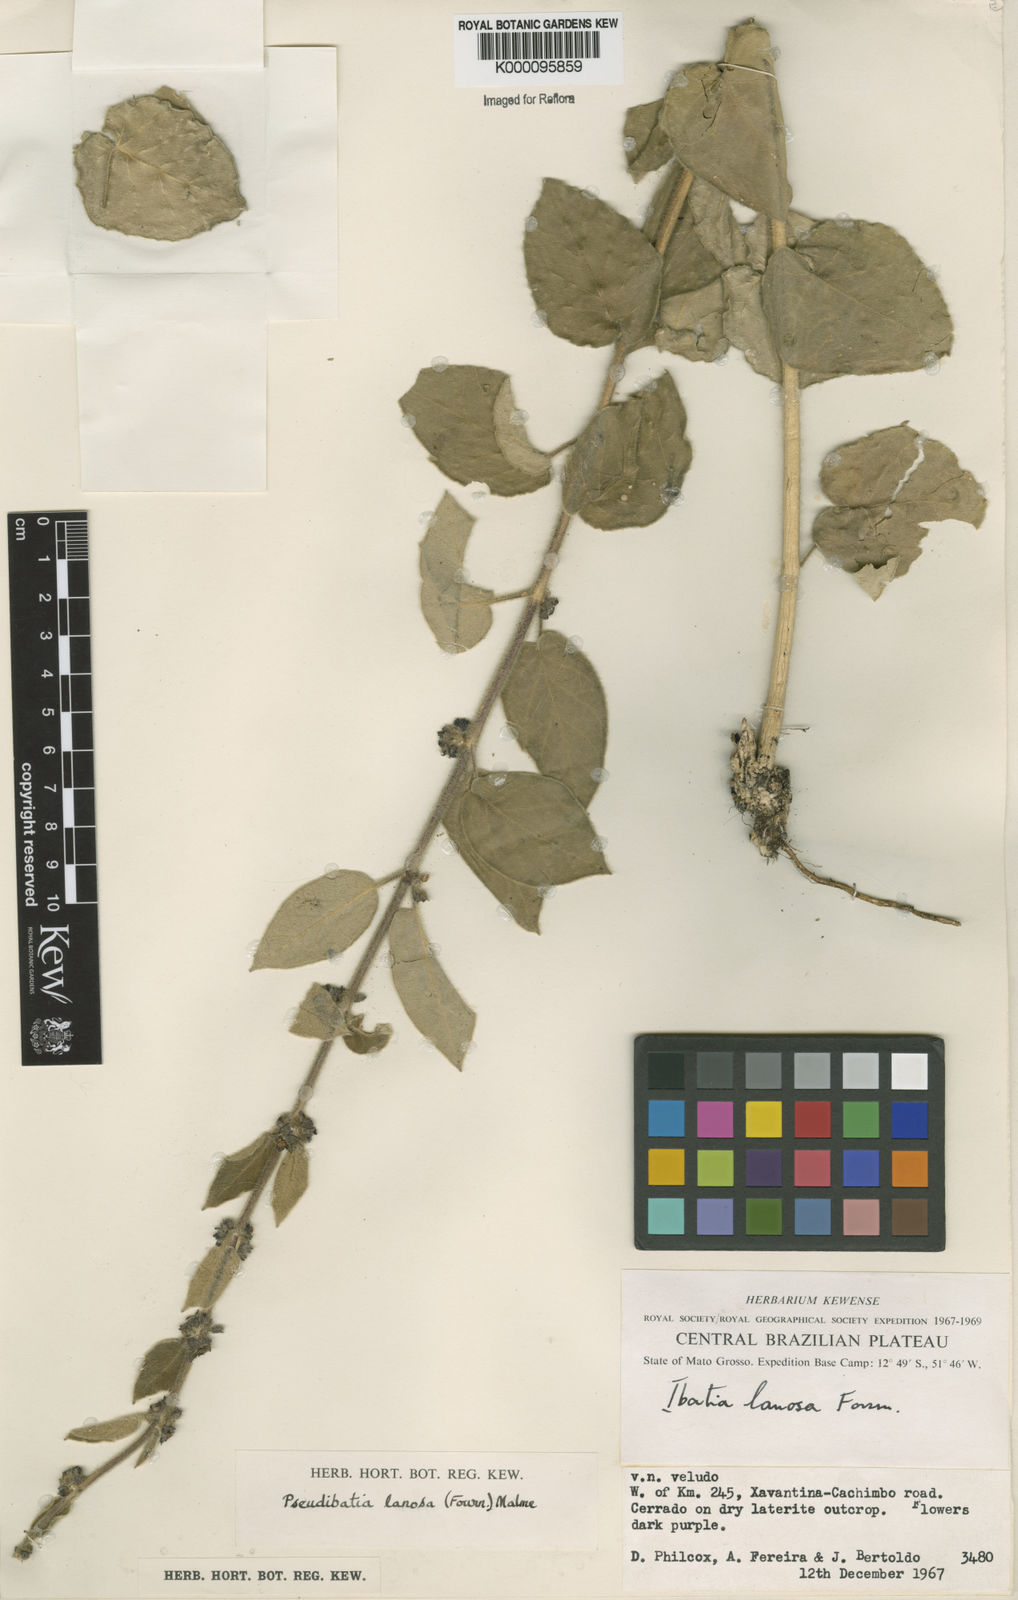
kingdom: Plantae
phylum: Tracheophyta
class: Magnoliopsida
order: Gentianales
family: Apocynaceae
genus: Ibatia
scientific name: Ibatia lanosa
